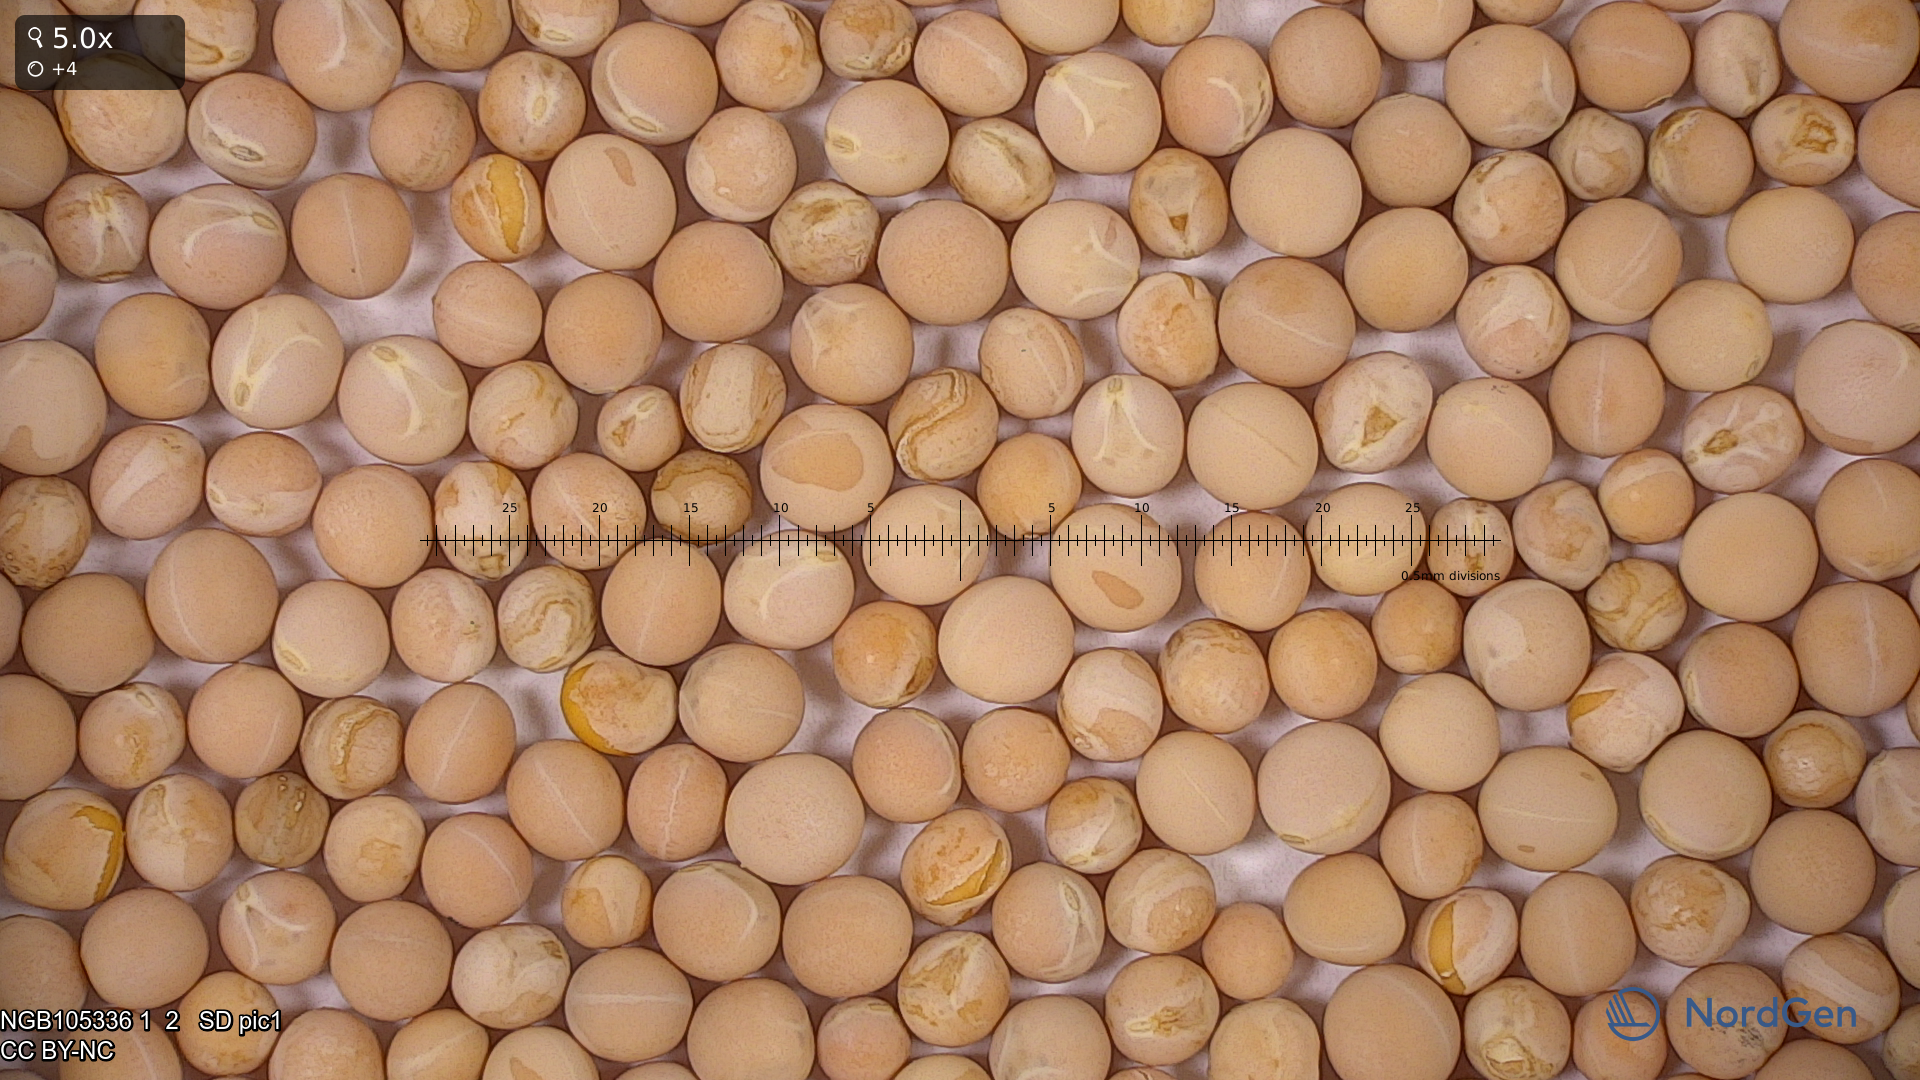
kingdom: Plantae
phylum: Tracheophyta
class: Magnoliopsida
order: Fabales
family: Fabaceae
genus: Lathyrus
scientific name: Lathyrus oleraceus
